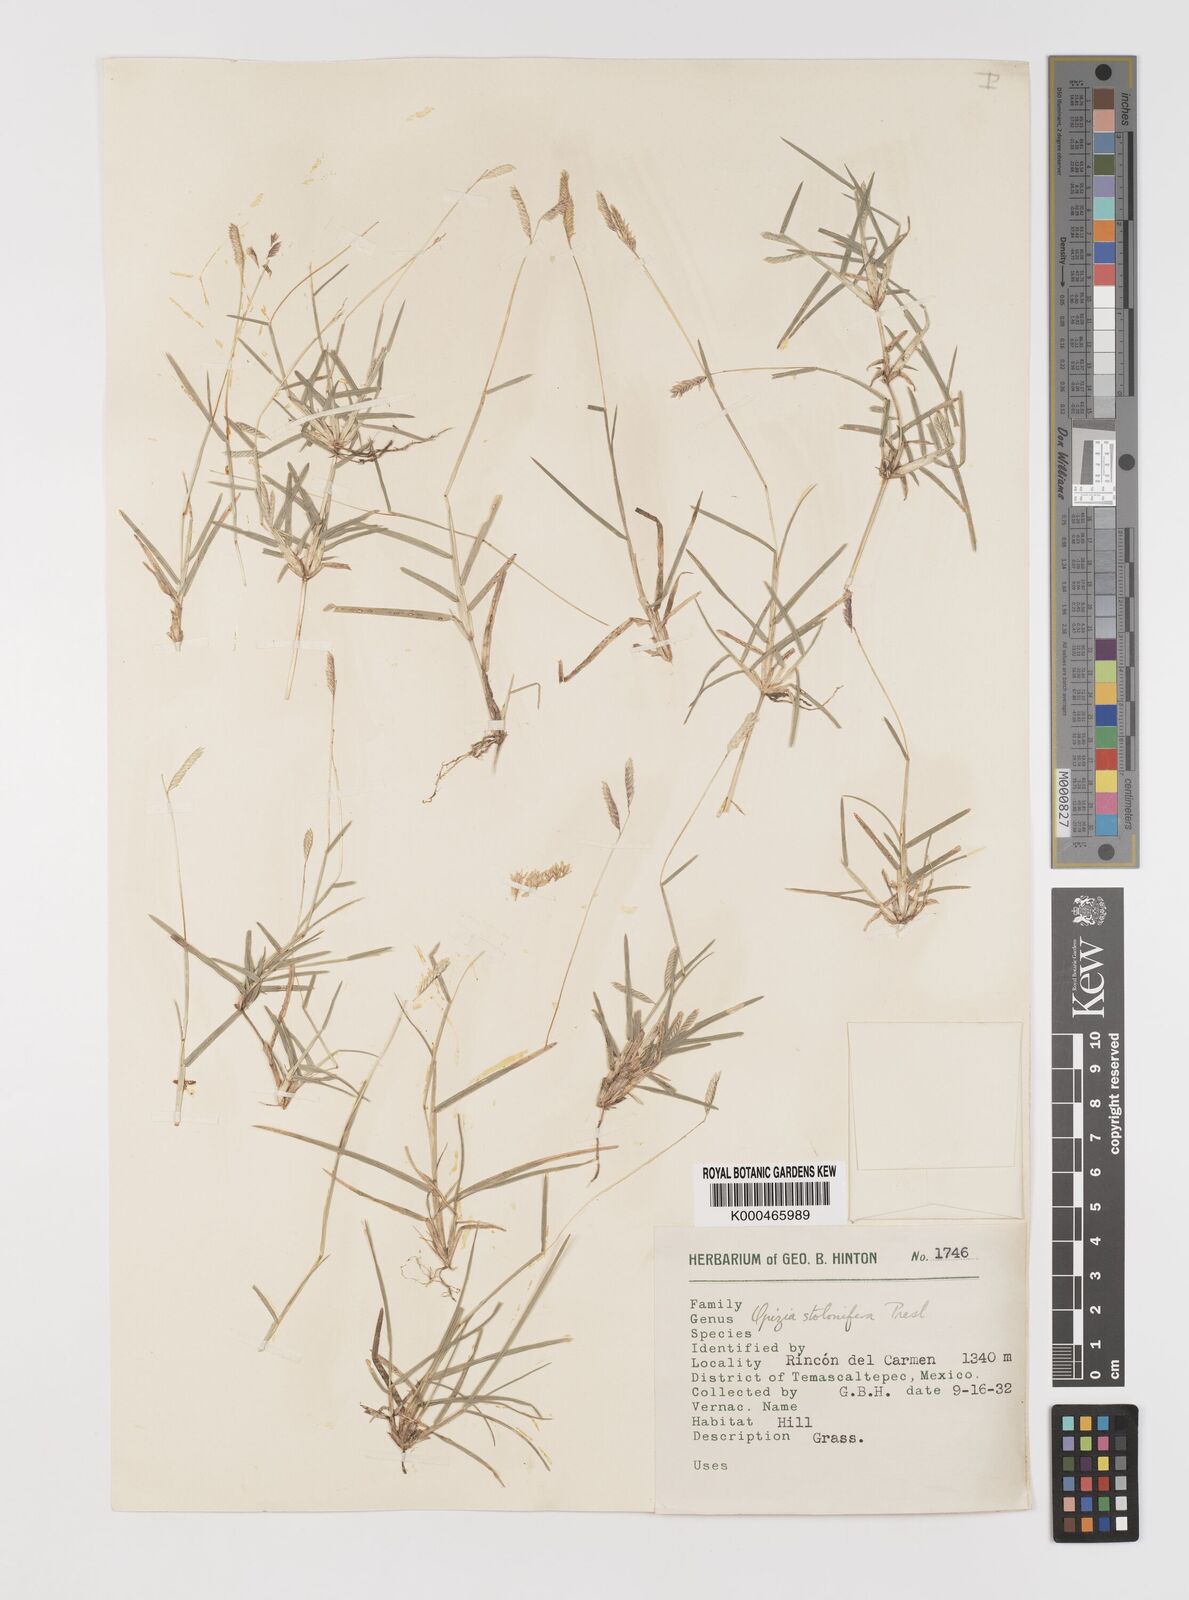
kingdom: Plantae
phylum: Tracheophyta
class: Liliopsida
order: Poales
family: Poaceae
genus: Bouteloua
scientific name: Bouteloua dimorpha
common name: Acapulco grass
